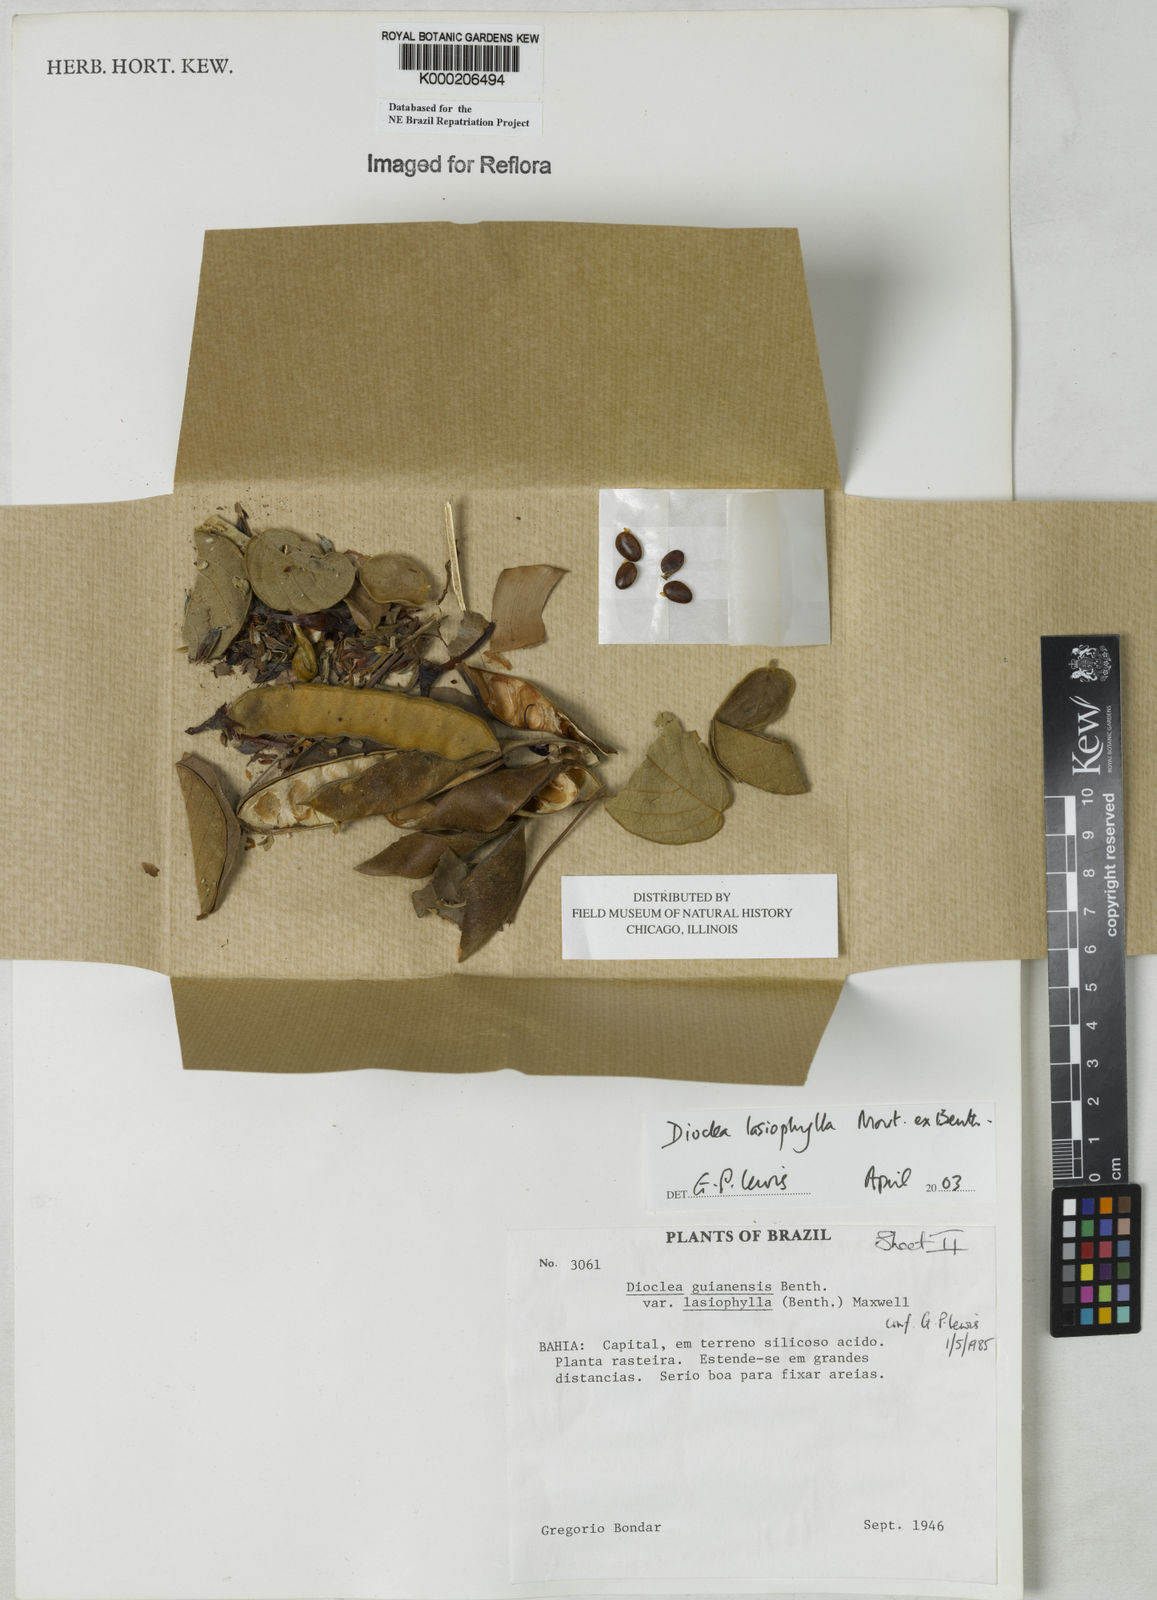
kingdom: Plantae
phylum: Tracheophyta
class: Magnoliopsida
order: Fabales
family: Fabaceae
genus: Dioclea
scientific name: Dioclea virgata
